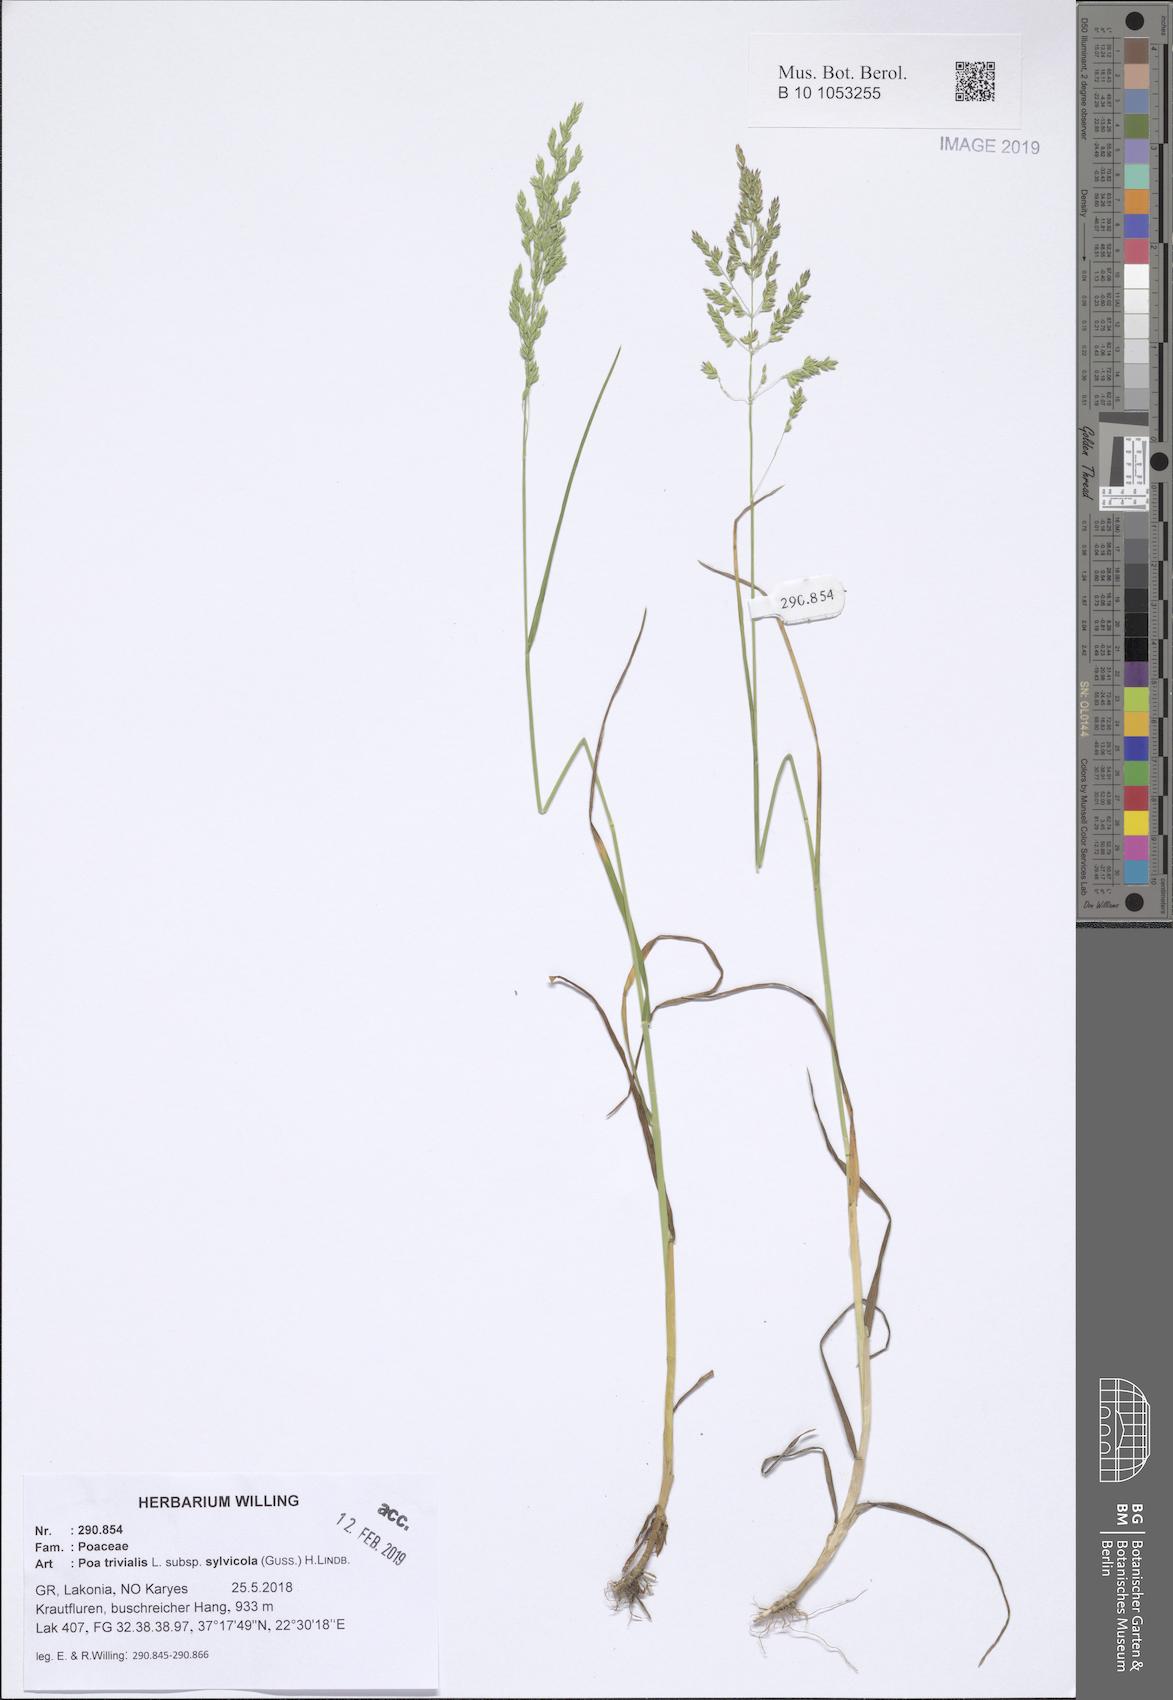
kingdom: Plantae
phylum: Tracheophyta
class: Liliopsida
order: Poales
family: Poaceae
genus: Poa
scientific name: Poa trivialis
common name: Rough bluegrass
